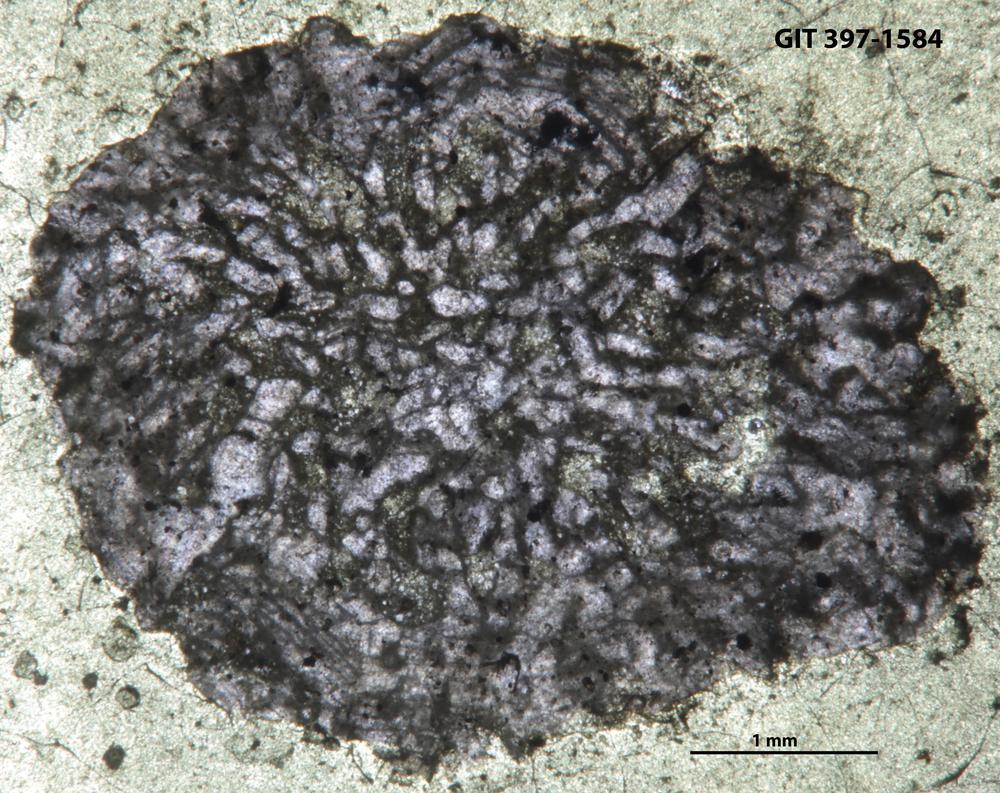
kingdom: Animalia
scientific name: Animalia
